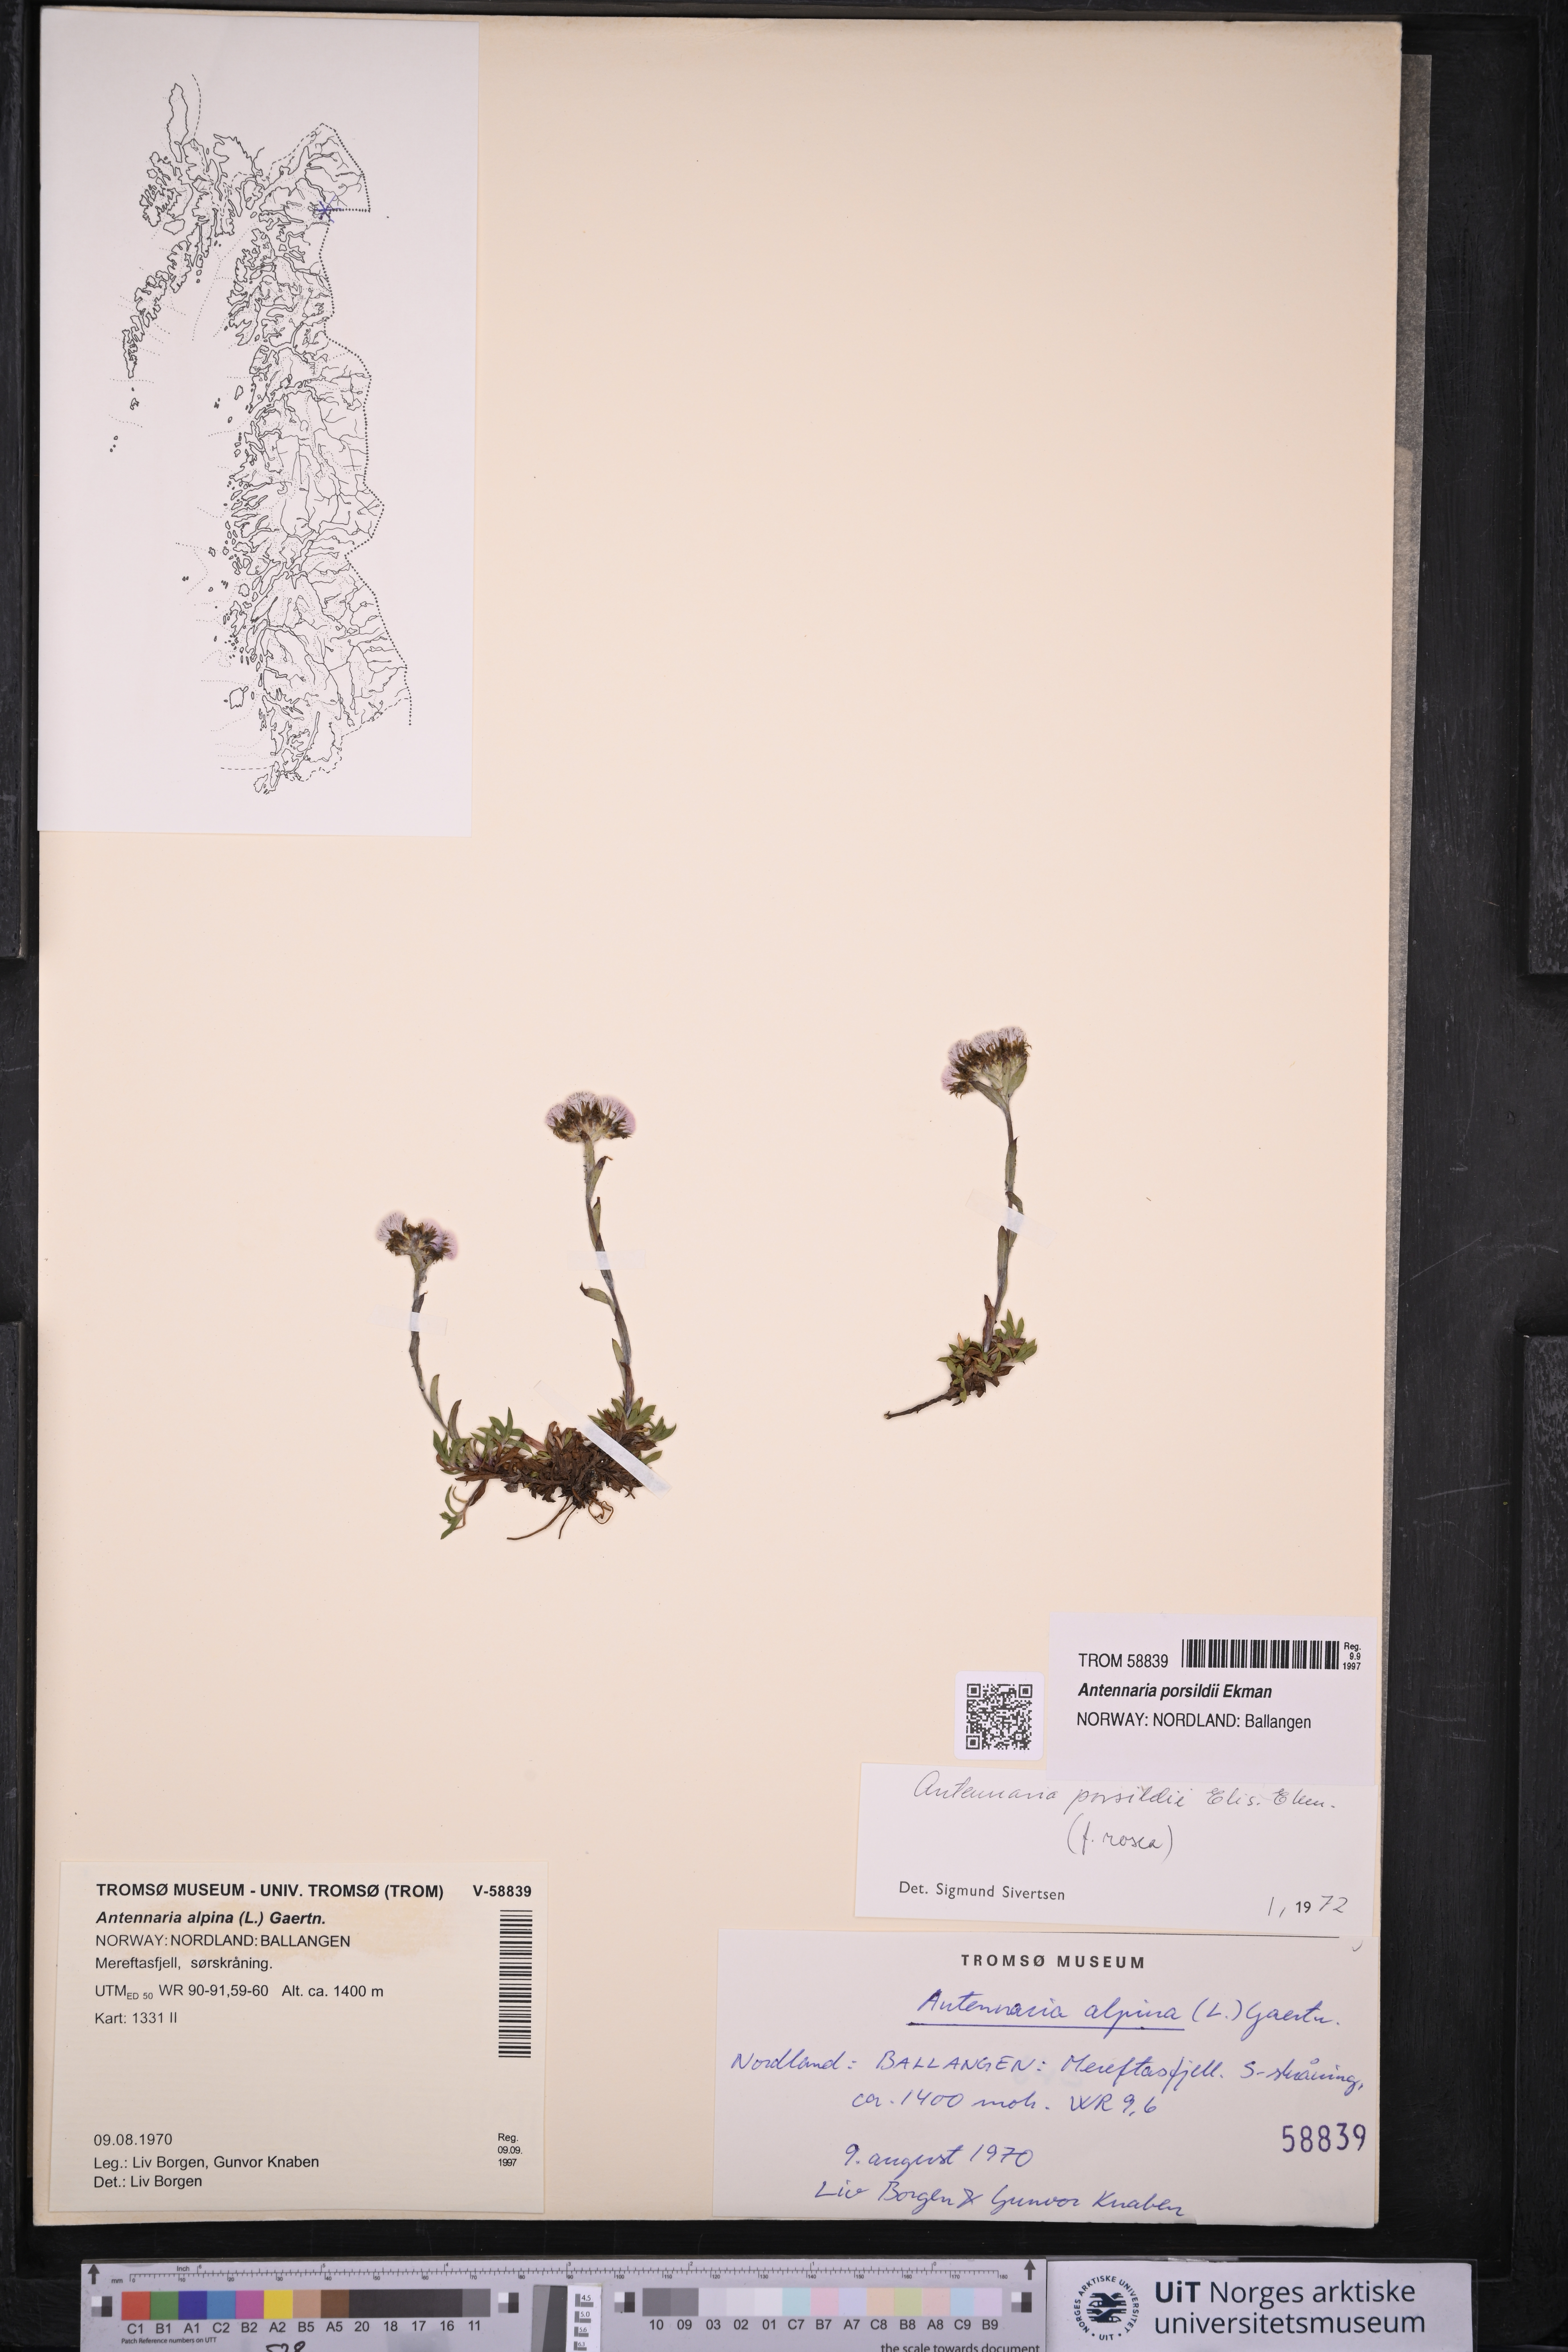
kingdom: Plantae
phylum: Tracheophyta
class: Magnoliopsida
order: Asterales
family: Asteraceae
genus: Antennaria
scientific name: Antennaria porsildii
